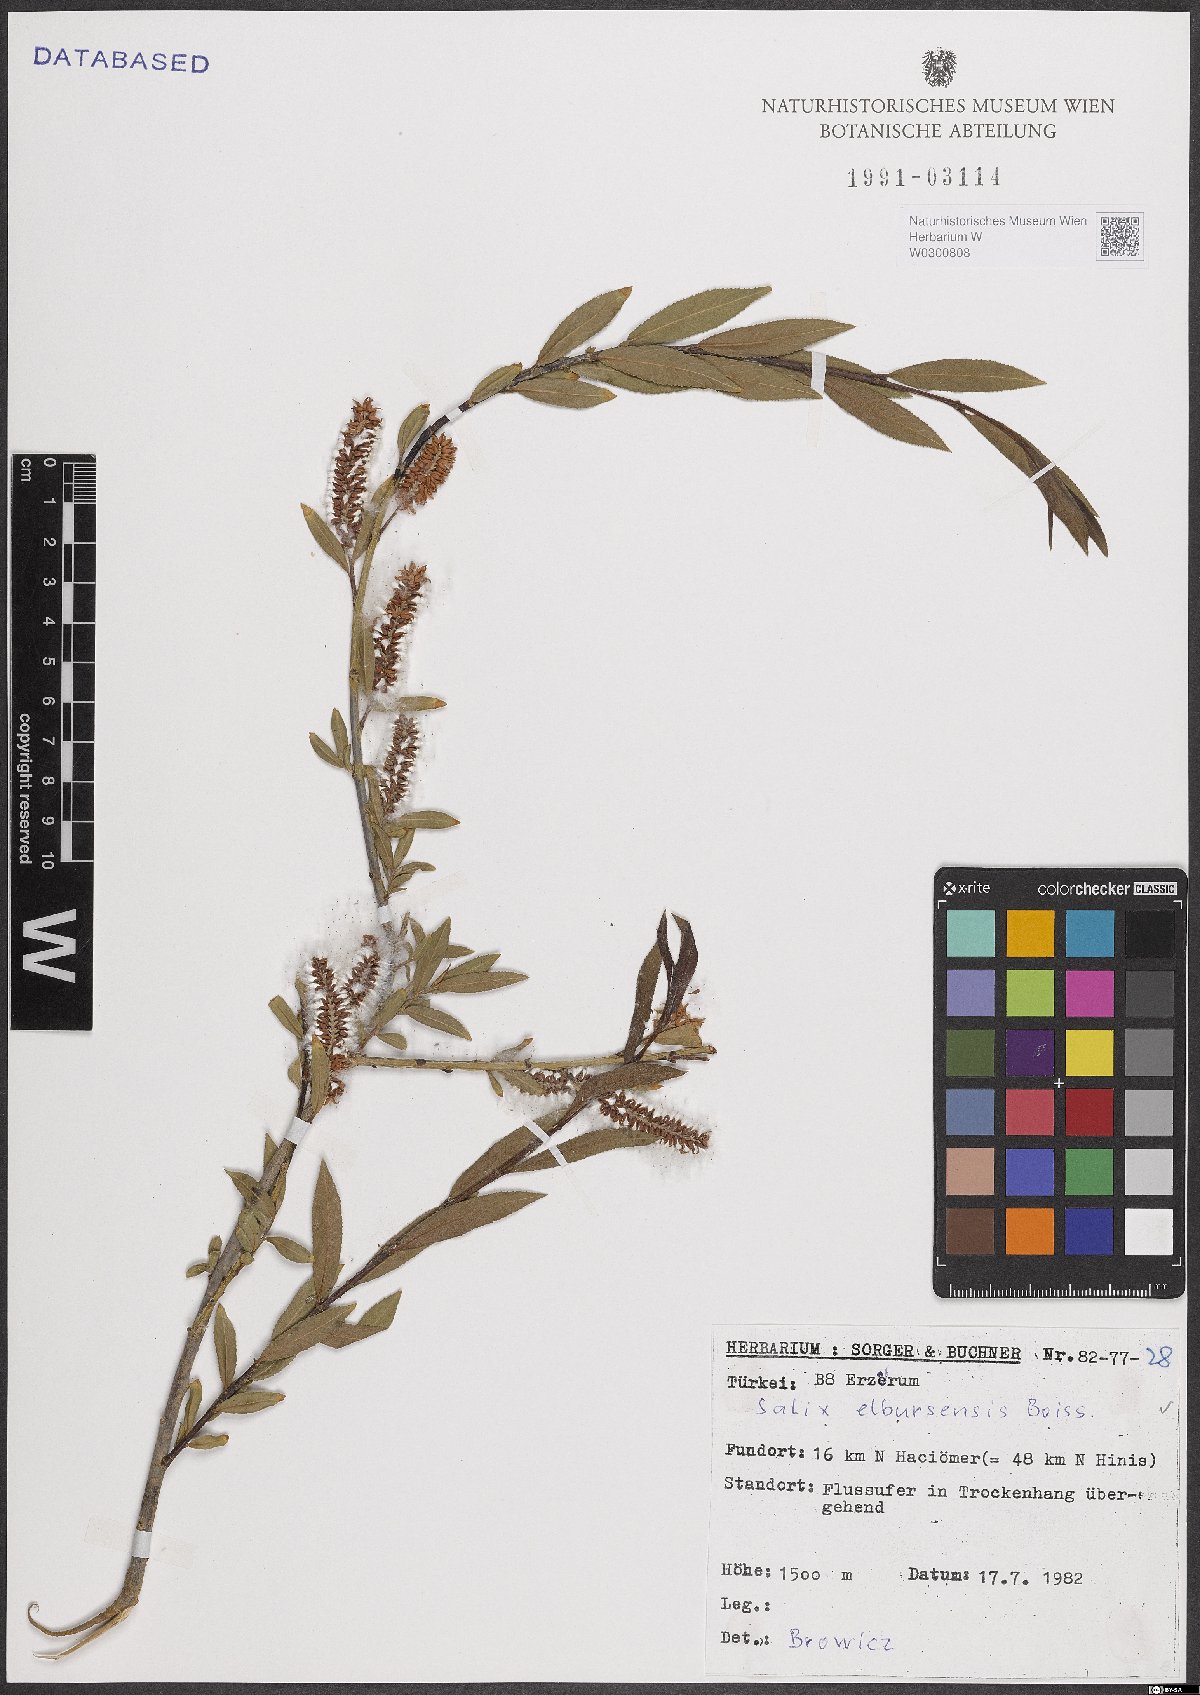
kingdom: Plantae
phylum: Tracheophyta
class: Magnoliopsida
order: Malpighiales
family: Salicaceae
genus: Salix
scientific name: Salix elbursensis
